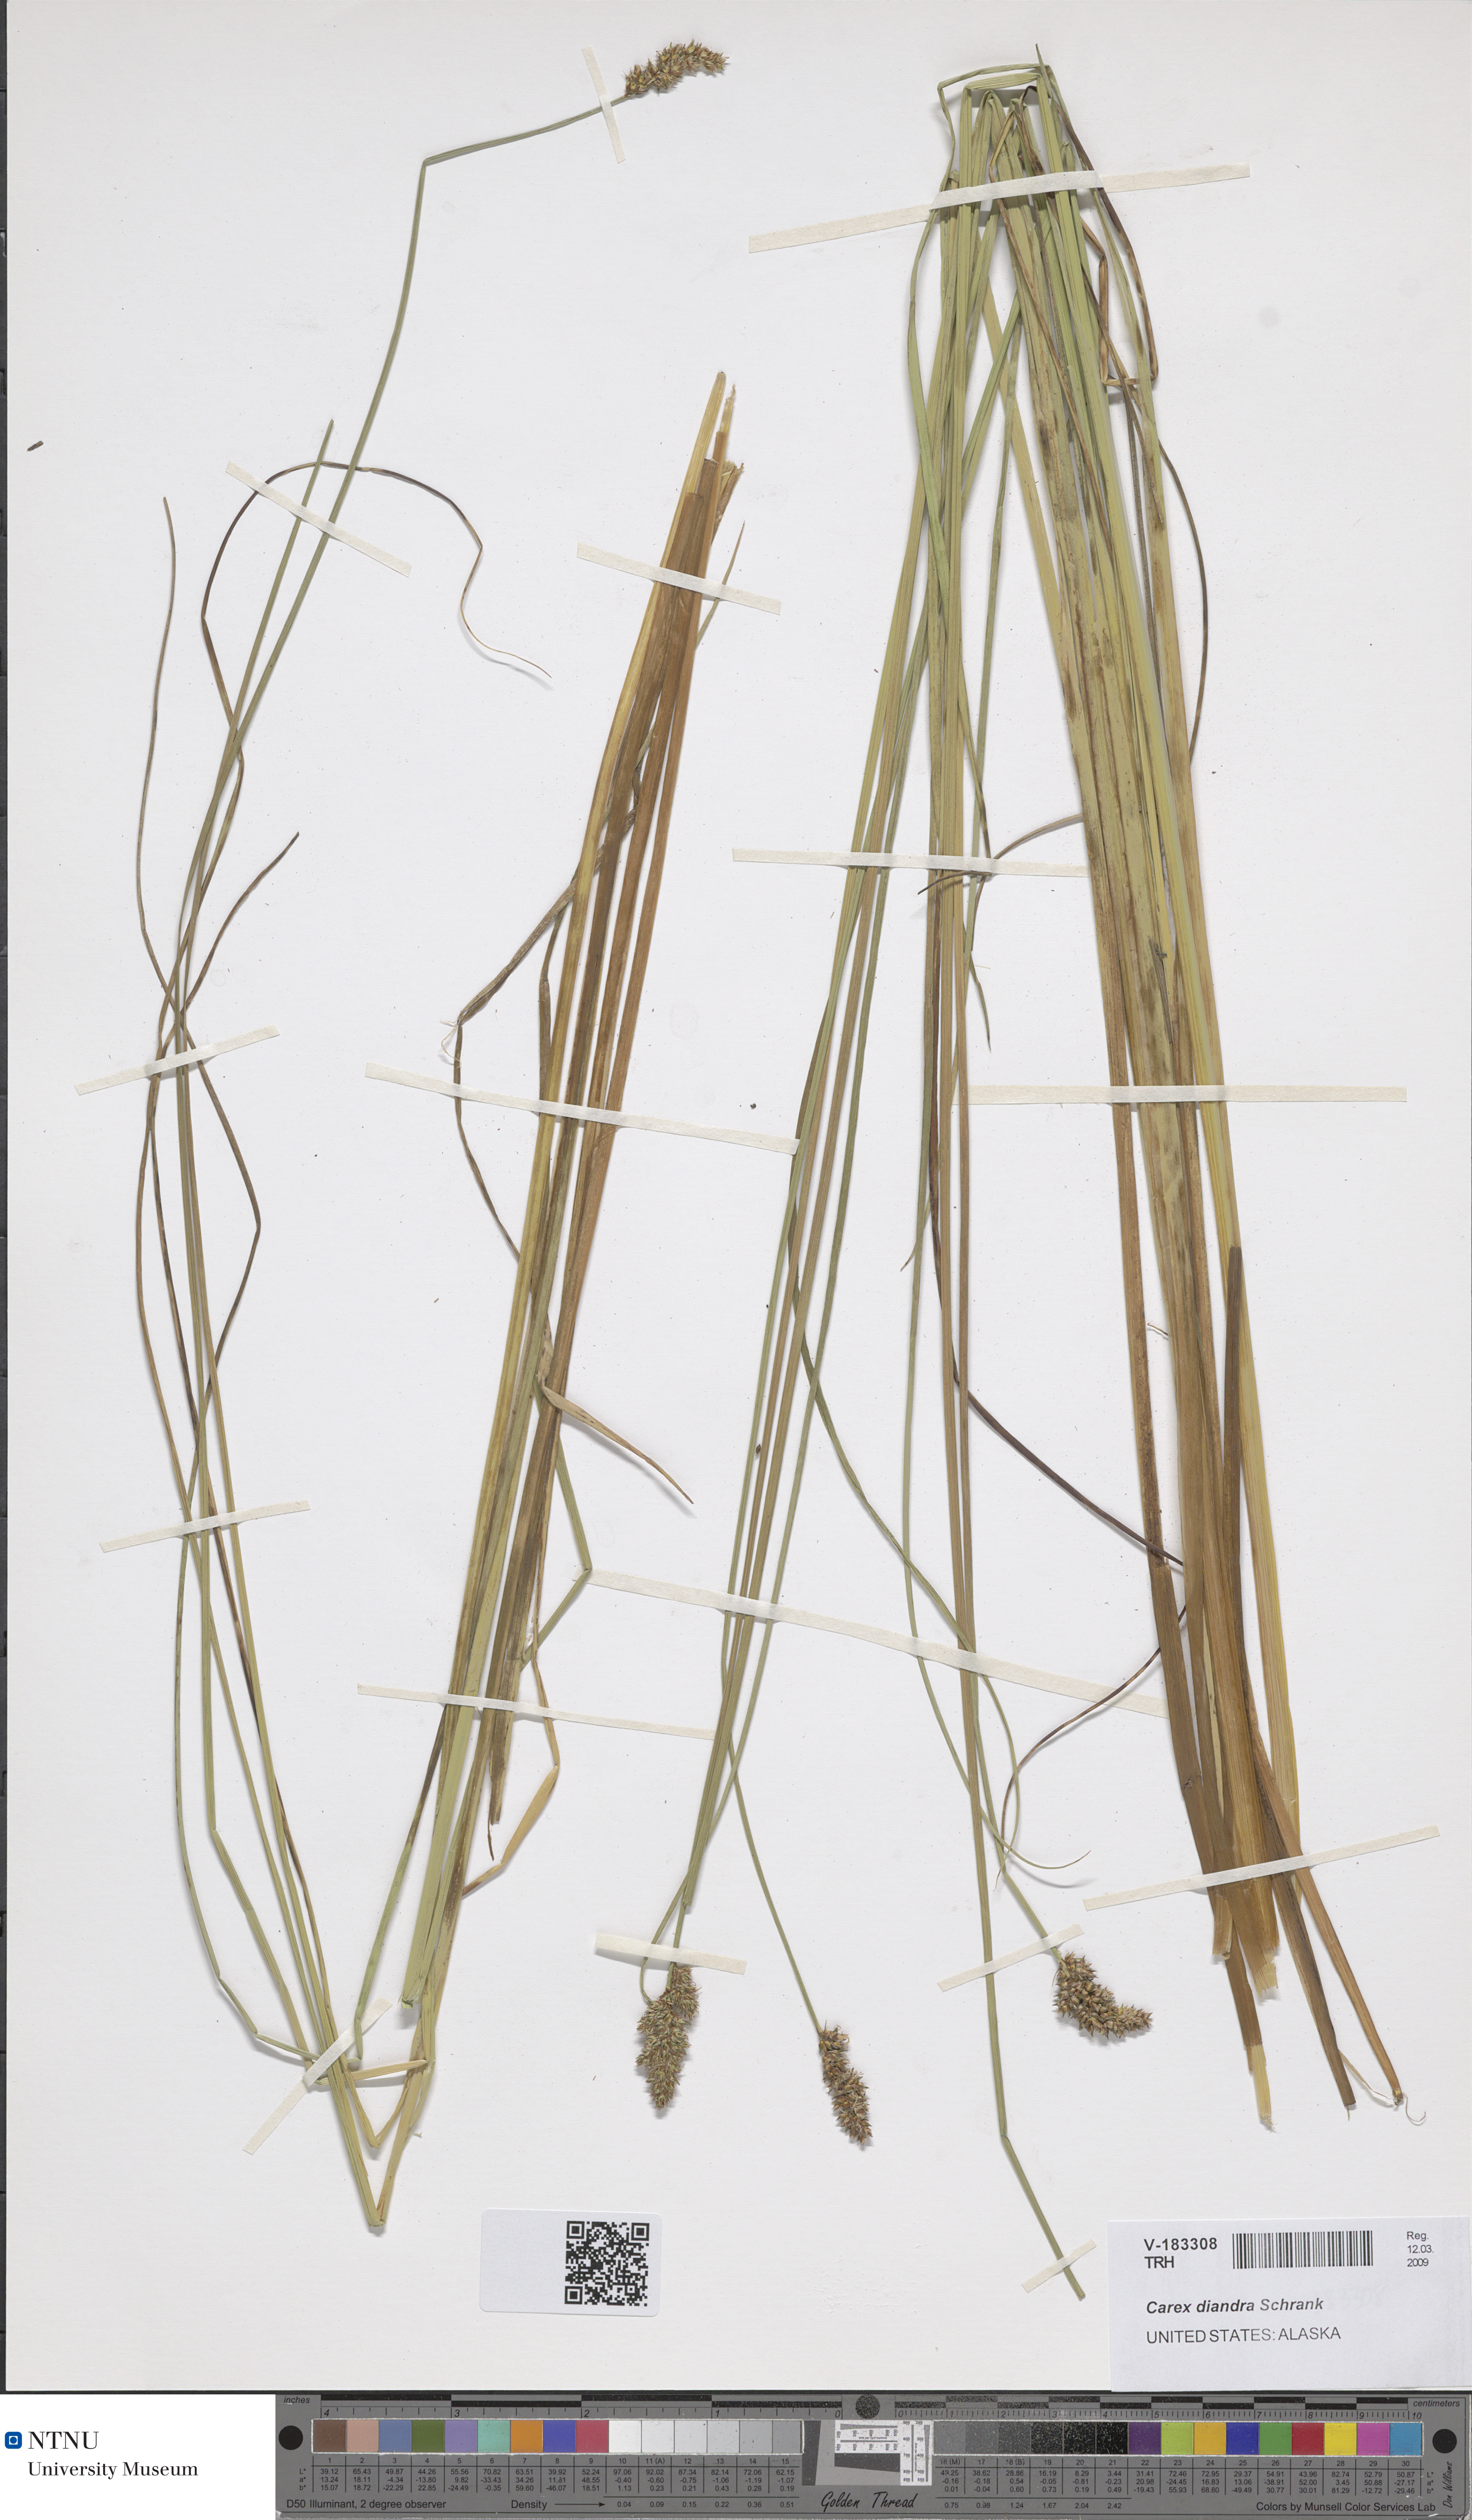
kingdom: Plantae
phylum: Tracheophyta
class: Liliopsida
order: Poales
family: Cyperaceae
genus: Carex
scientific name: Carex diandra
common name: Lesser tussock-sedge
